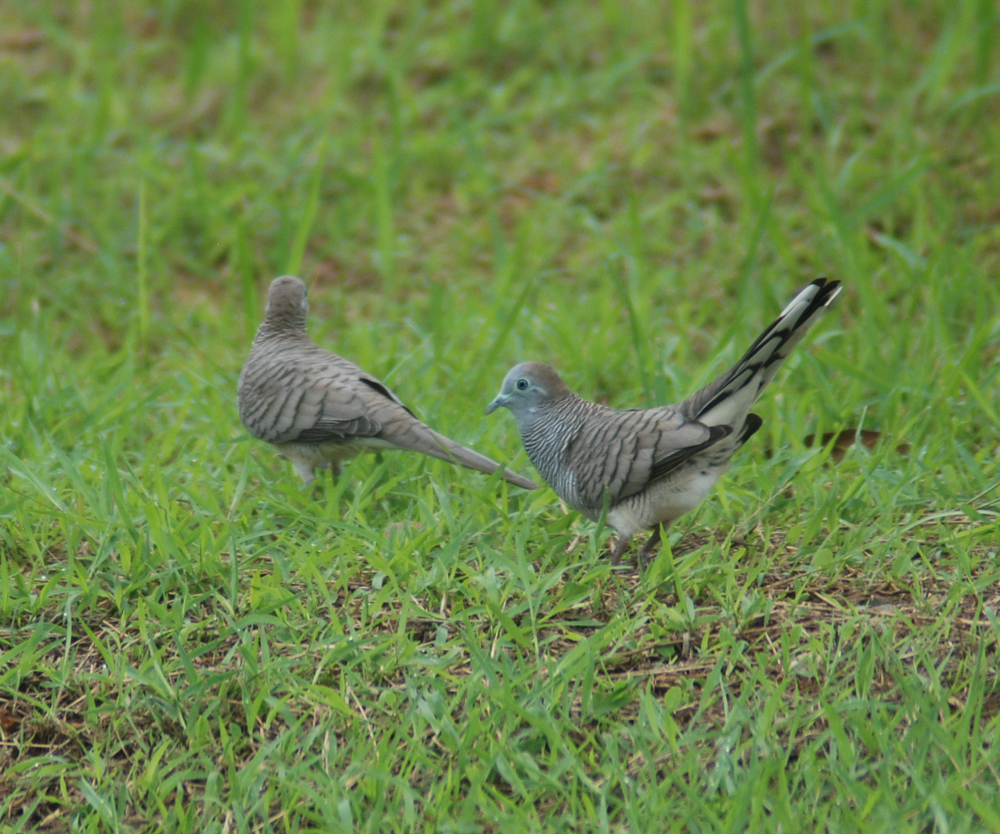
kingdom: Animalia
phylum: Chordata
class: Aves
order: Columbiformes
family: Columbidae
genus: Geopelia
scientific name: Geopelia striata
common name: Zebra dove
